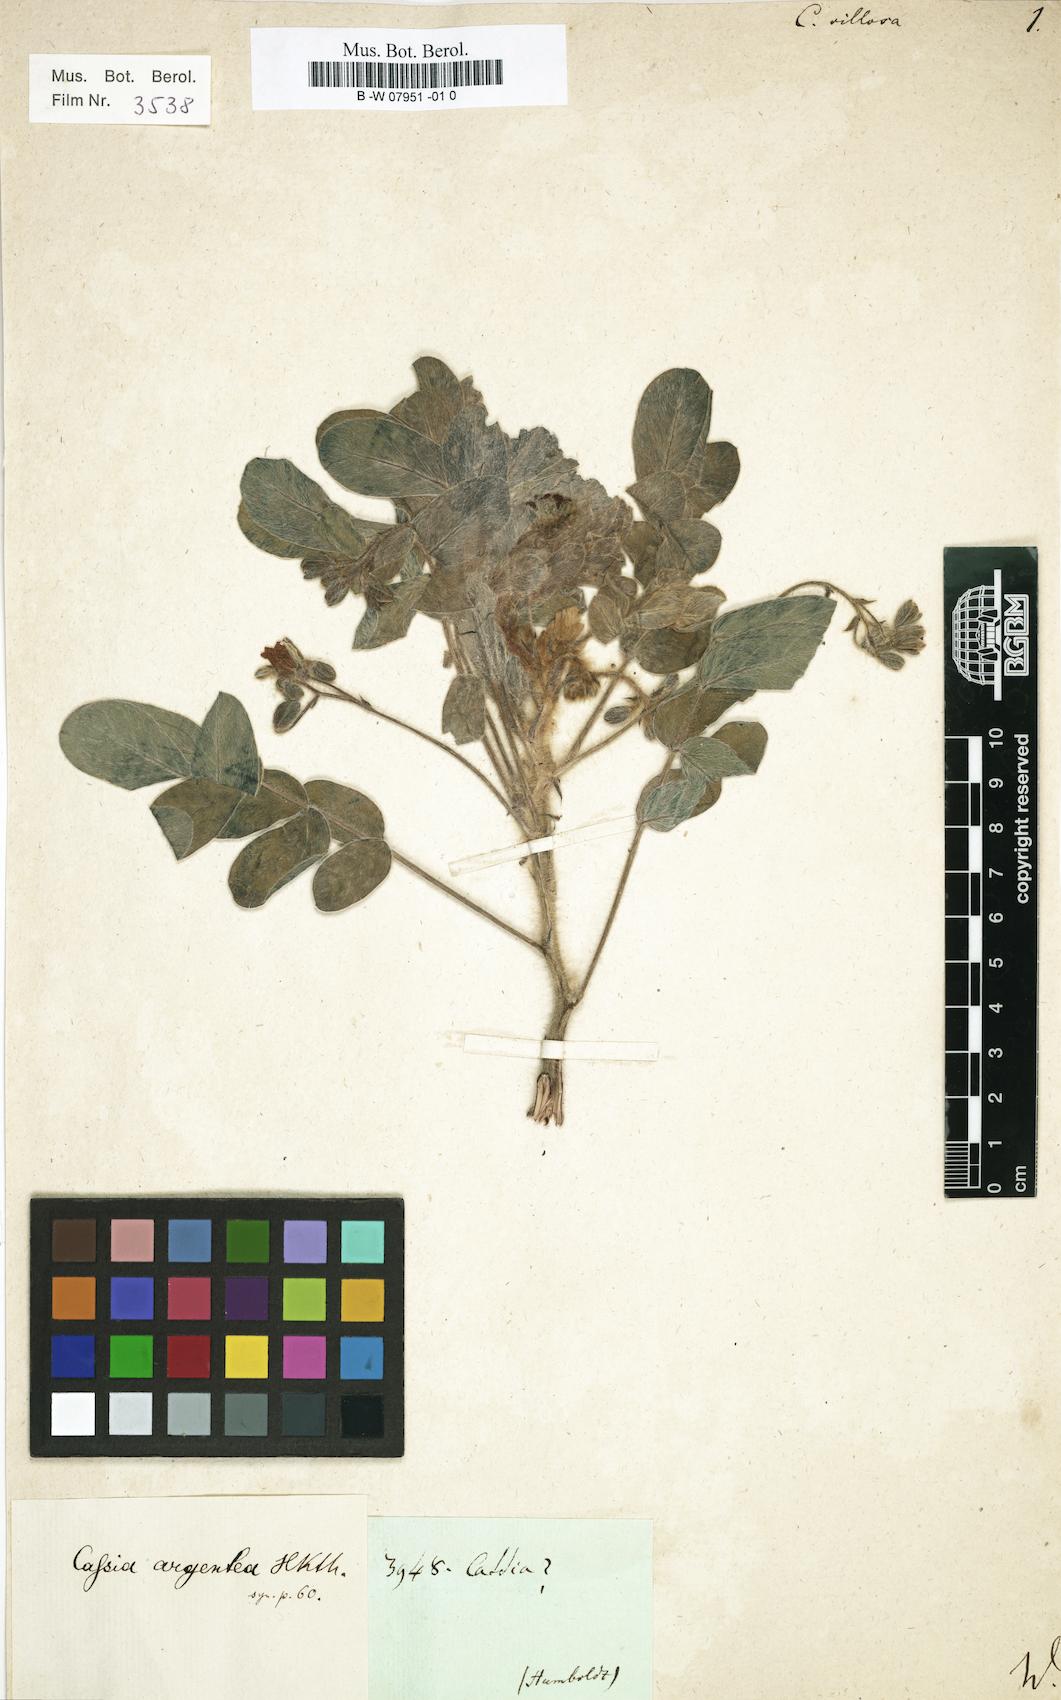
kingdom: Plantae
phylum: Tracheophyta
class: Magnoliopsida
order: Fabales
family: Fabaceae
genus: Senna
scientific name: Senna villosa
